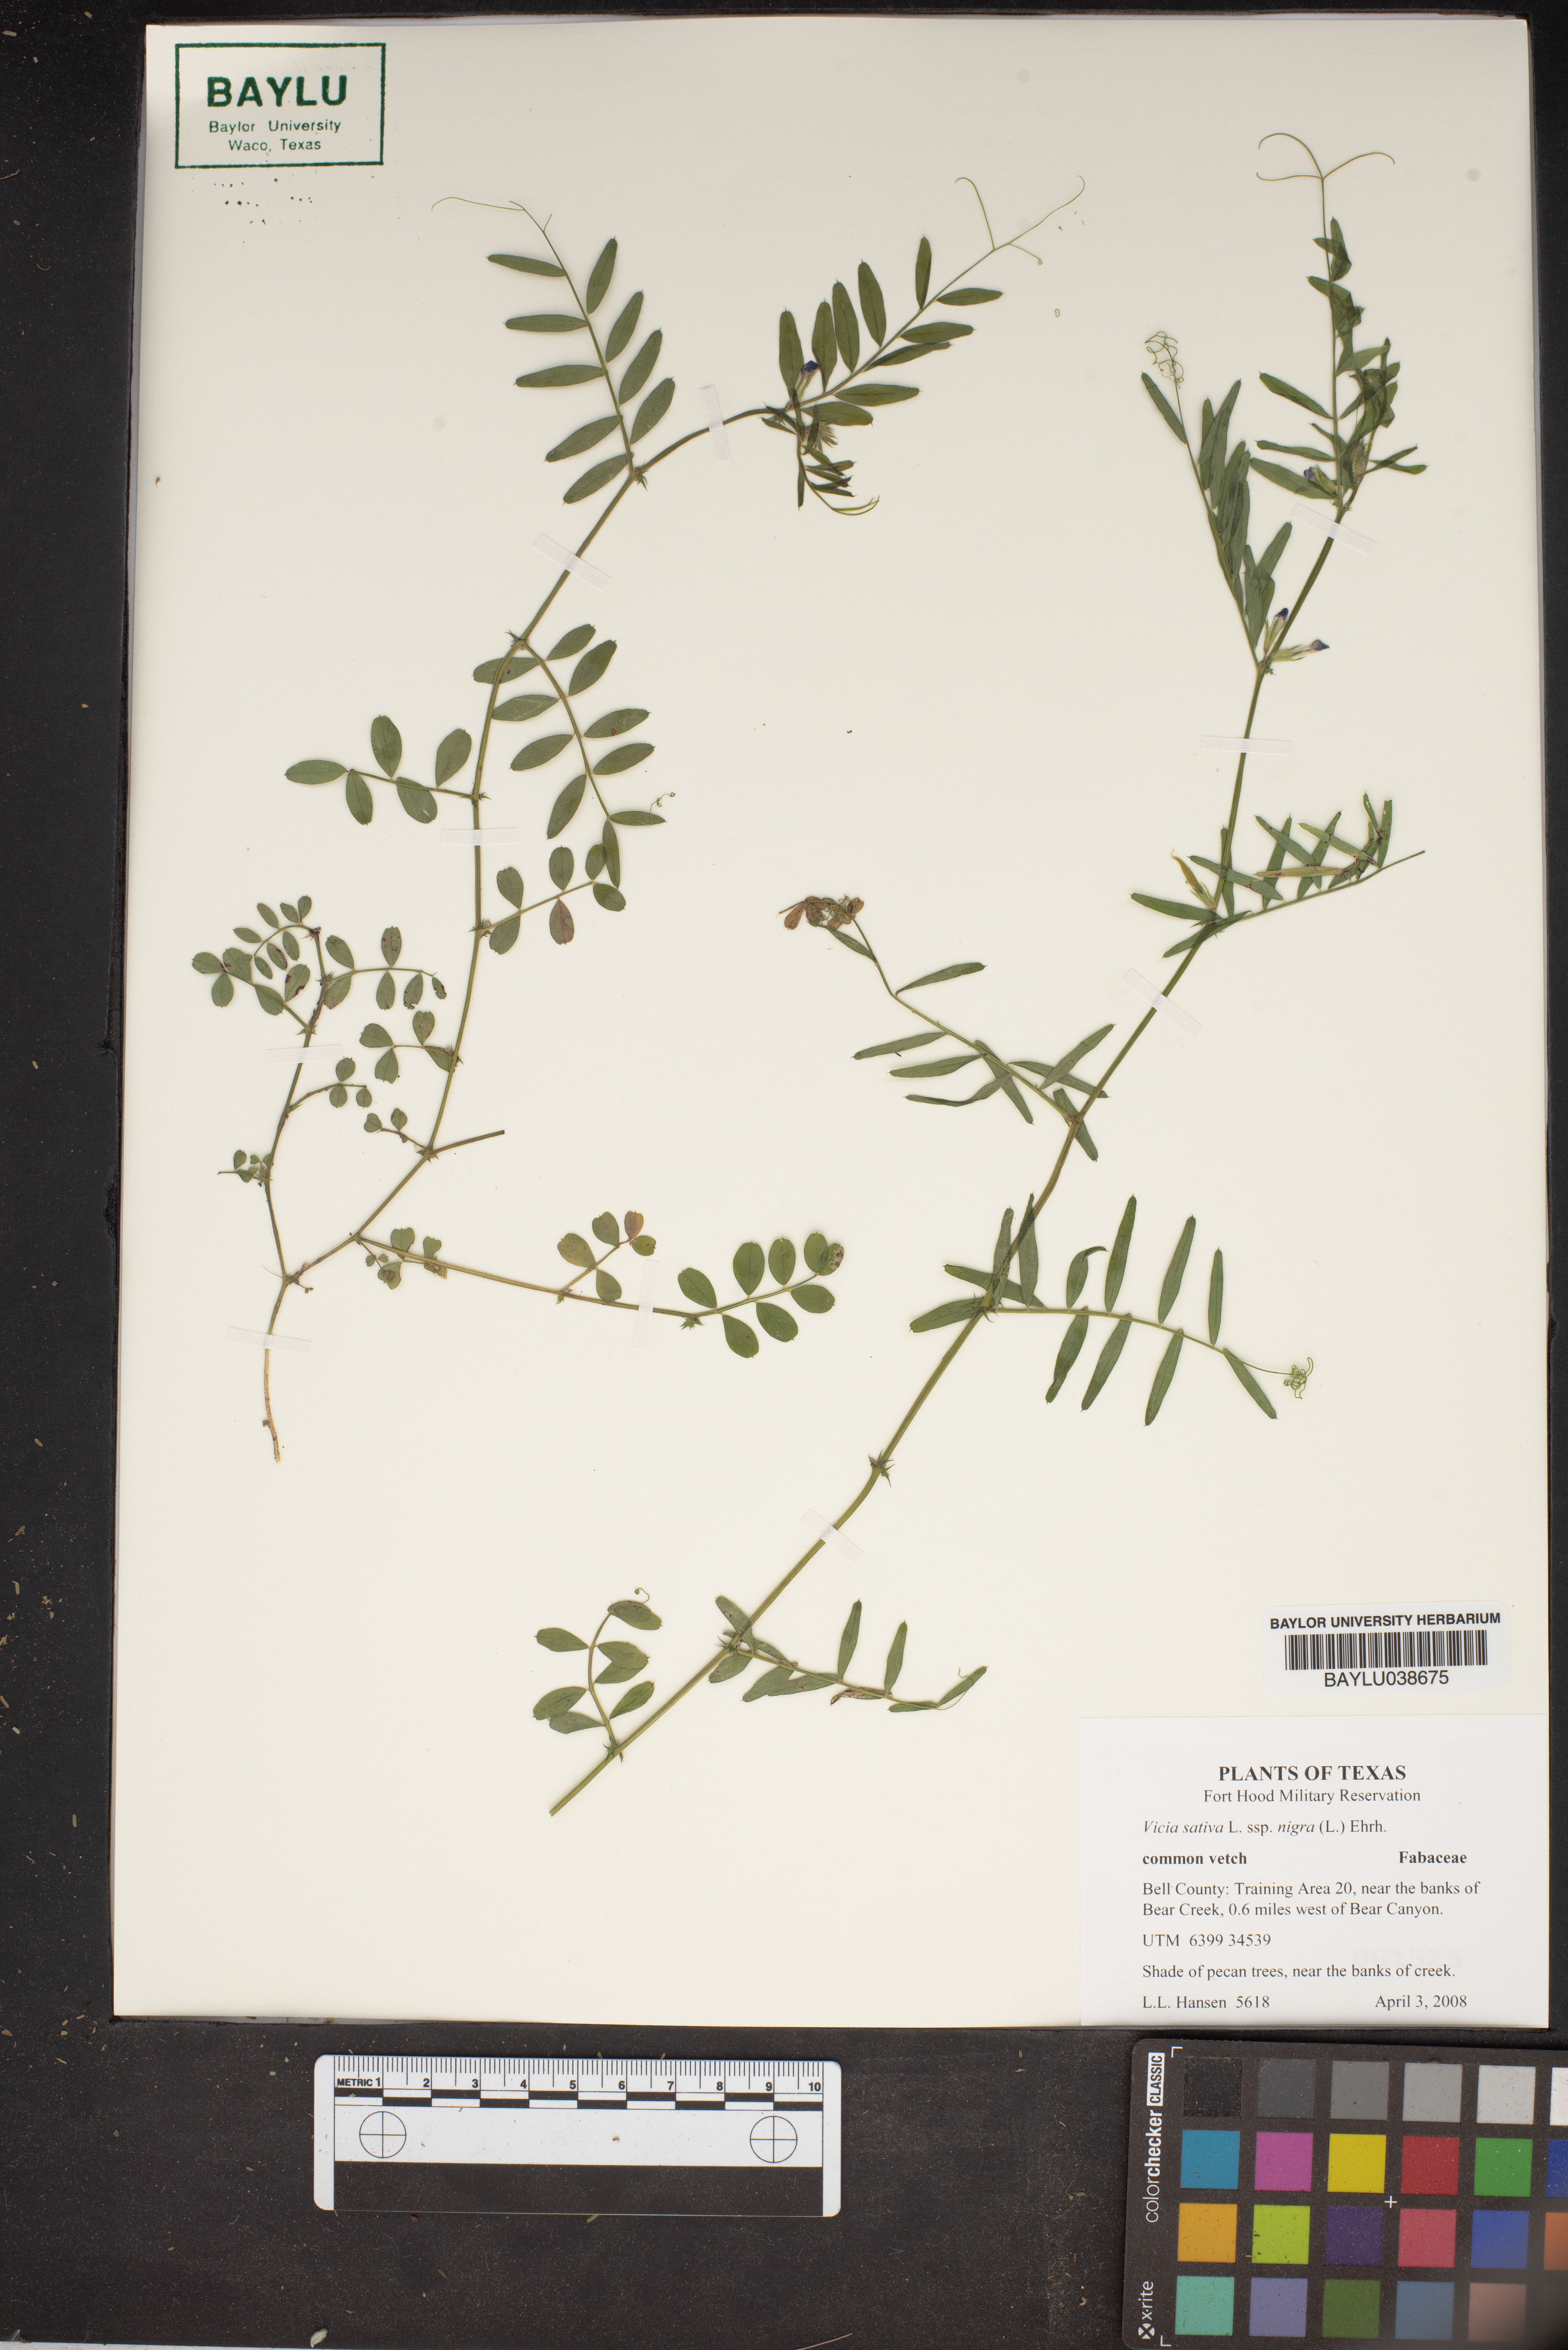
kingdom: Plantae
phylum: Tracheophyta
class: Magnoliopsida
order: Fabales
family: Fabaceae
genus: Vicia
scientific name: Vicia sativa
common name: Garden vetch
